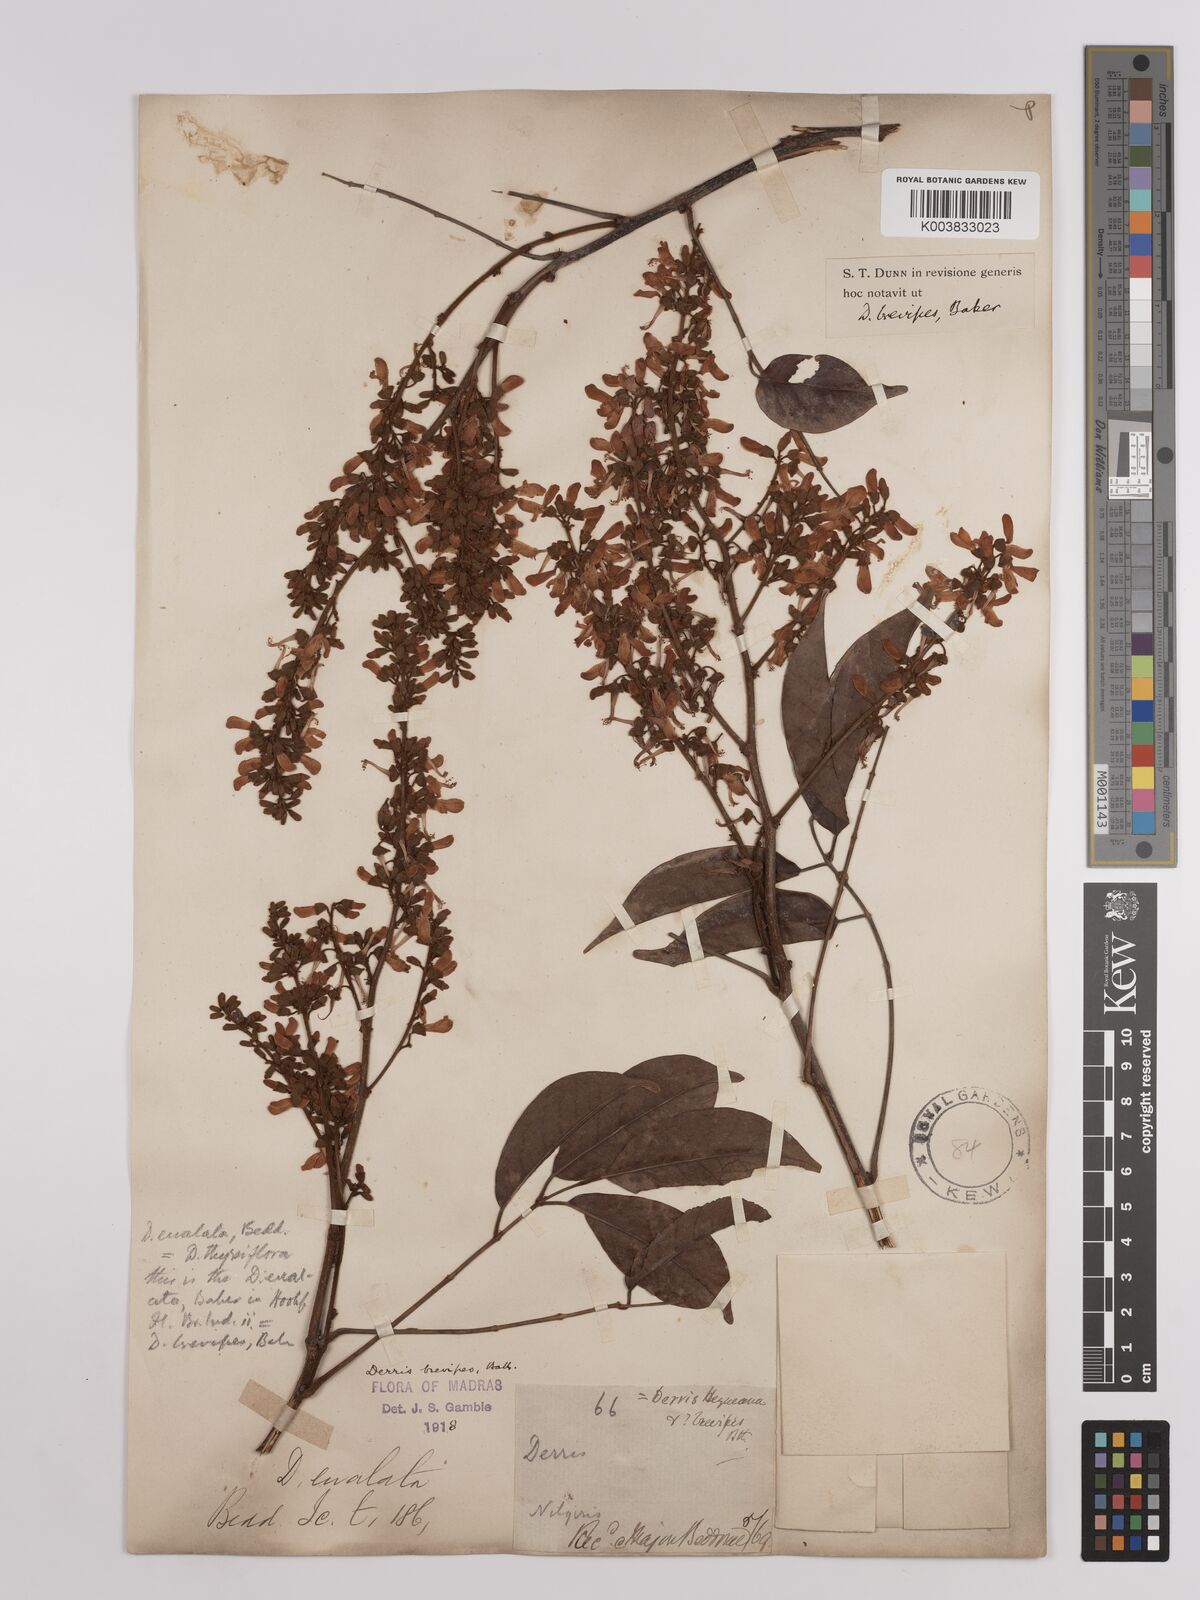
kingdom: Plantae
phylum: Tracheophyta
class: Magnoliopsida
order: Fabales
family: Fabaceae
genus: Derris
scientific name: Derris brevipes
